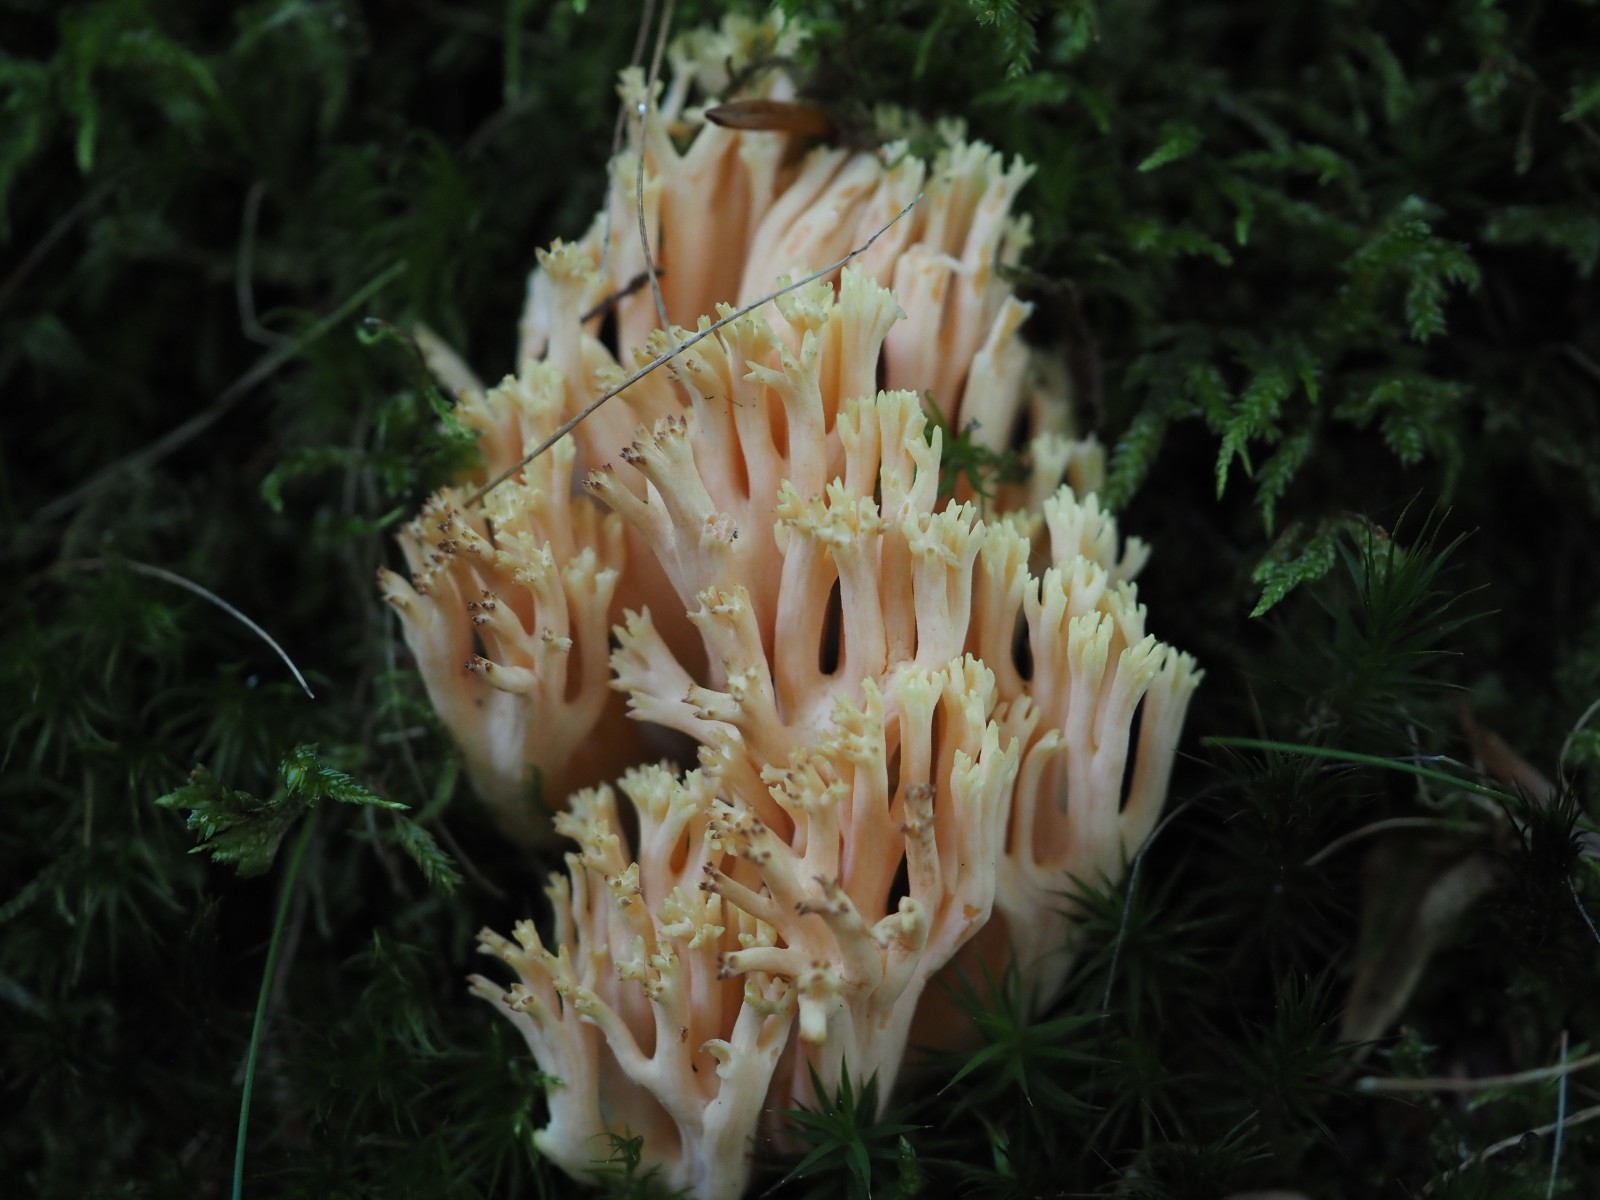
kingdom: Fungi
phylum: Basidiomycota
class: Agaricomycetes
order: Gomphales
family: Gomphaceae
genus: Ramaria
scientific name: Ramaria
